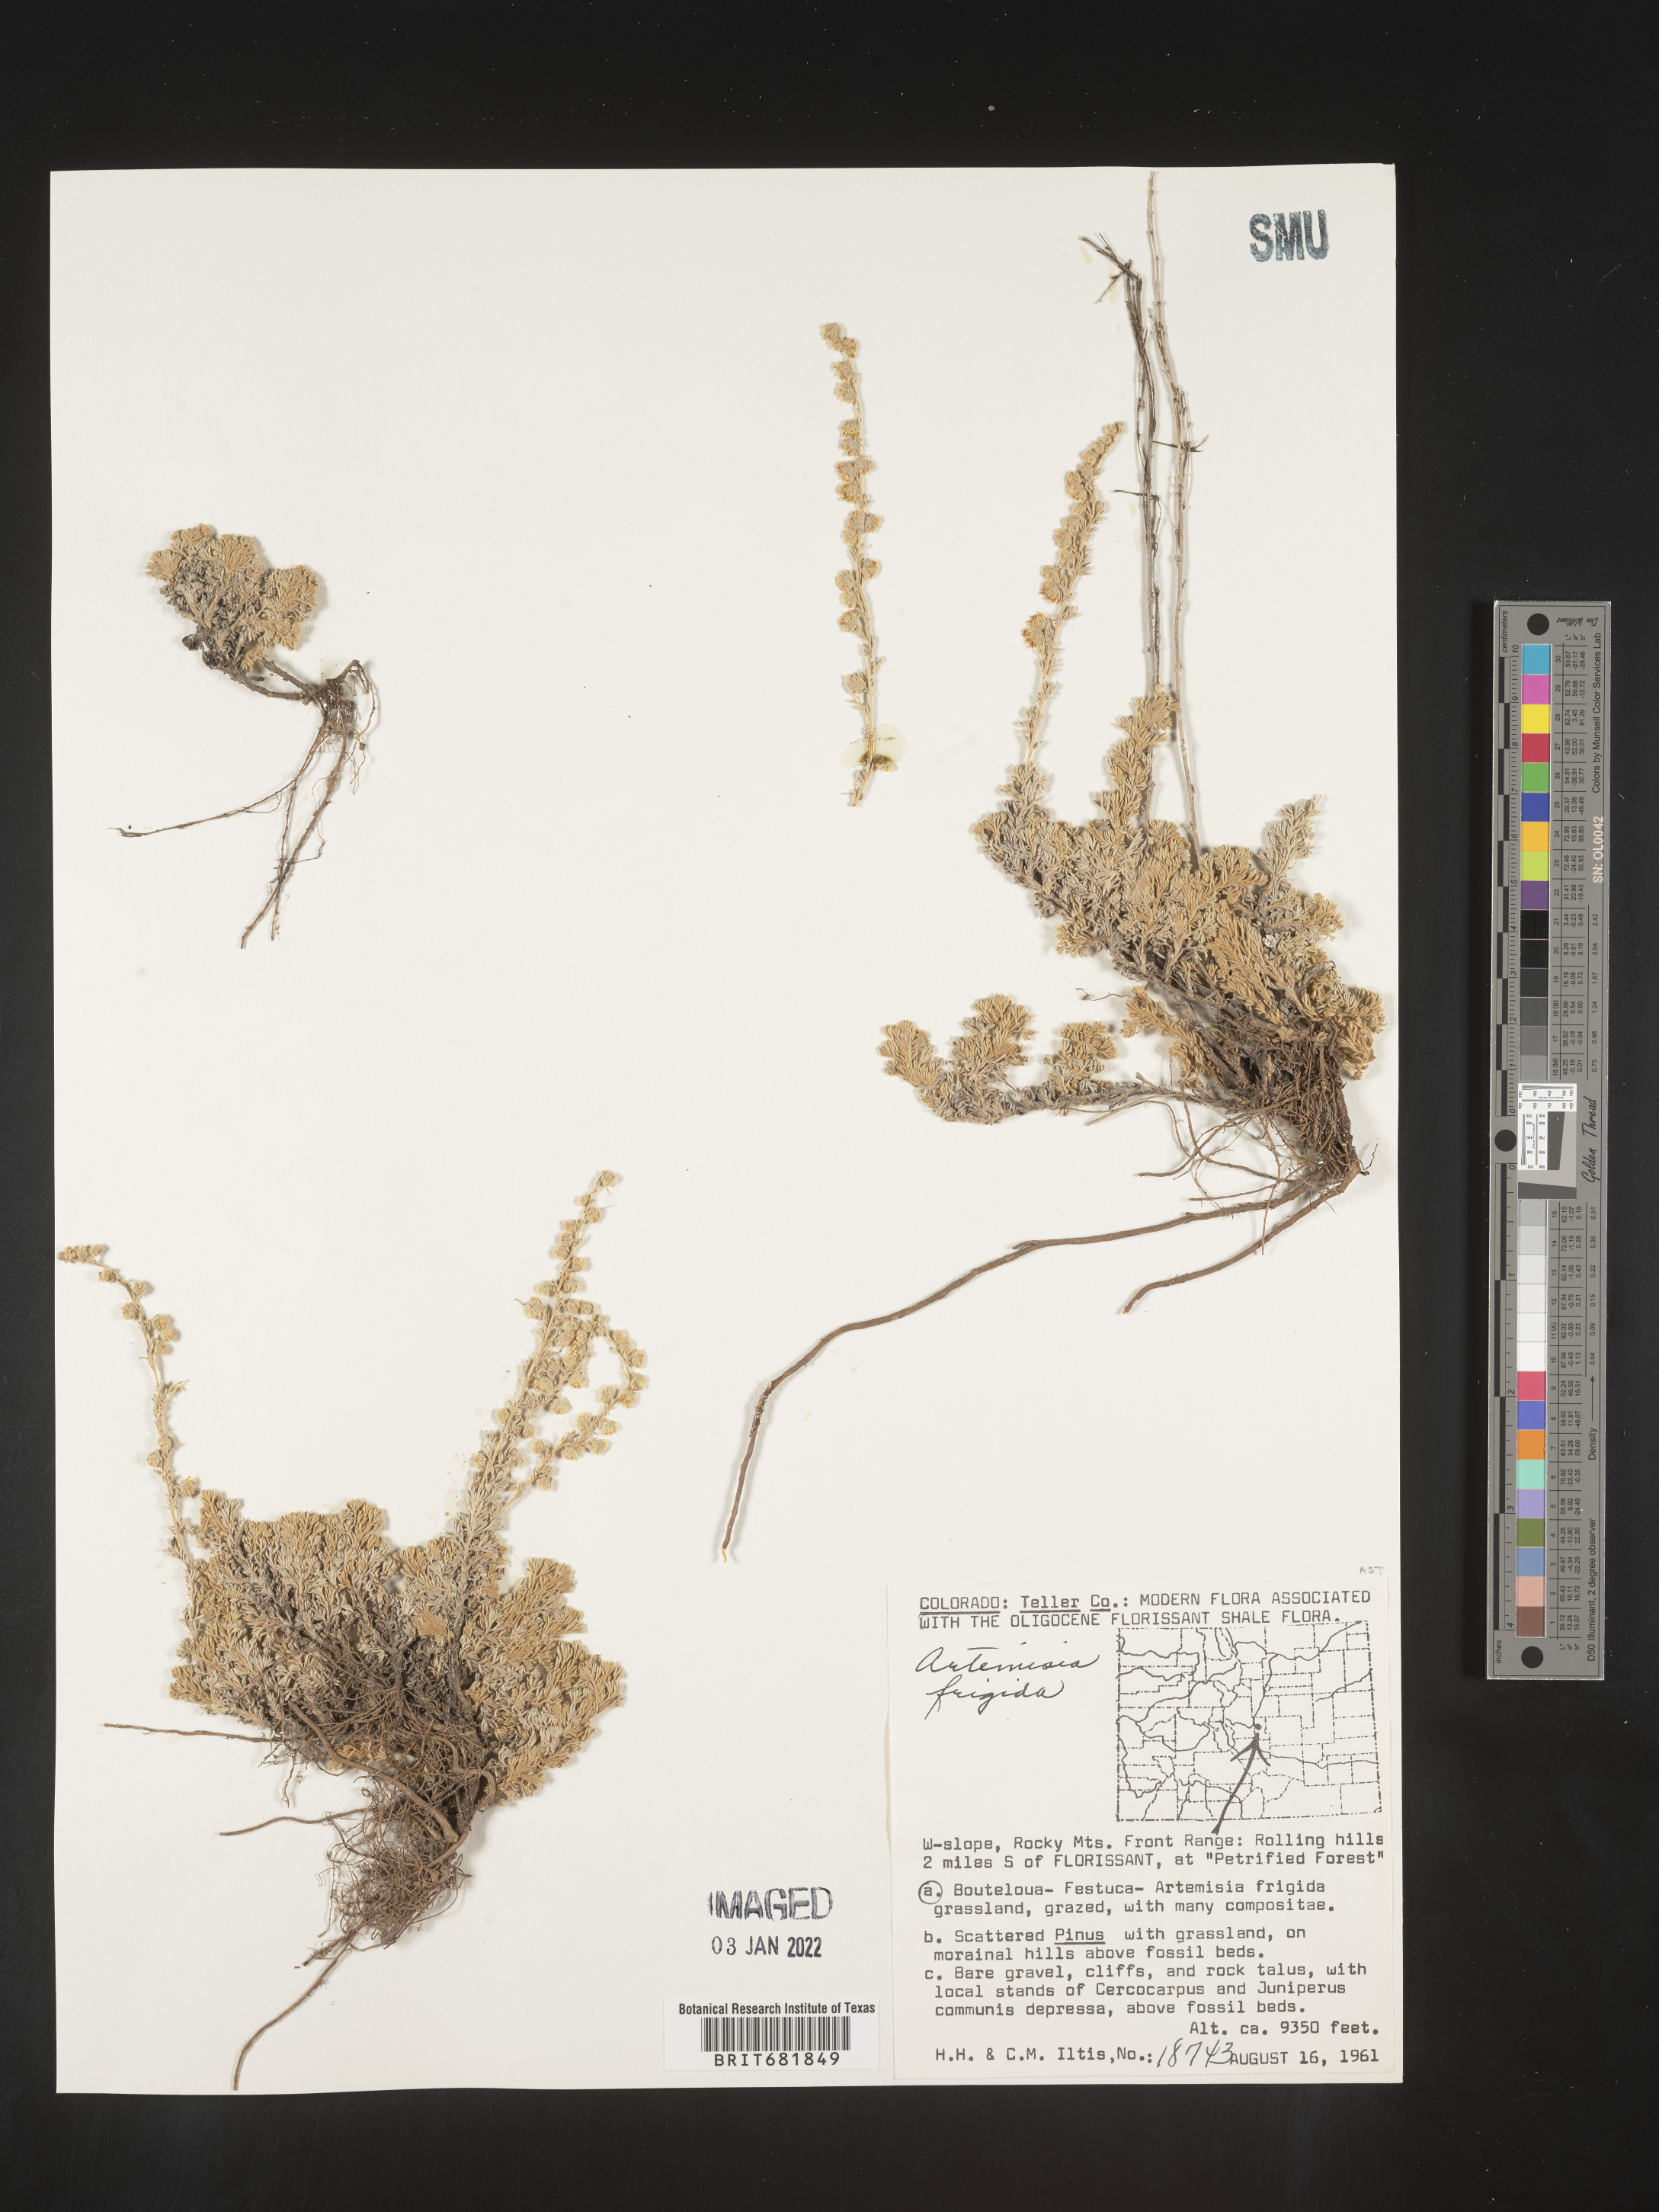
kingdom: Plantae
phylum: Tracheophyta
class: Magnoliopsida
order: Asterales
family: Asteraceae
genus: Artemisia
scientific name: Artemisia frigida
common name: Prairie sagewort
